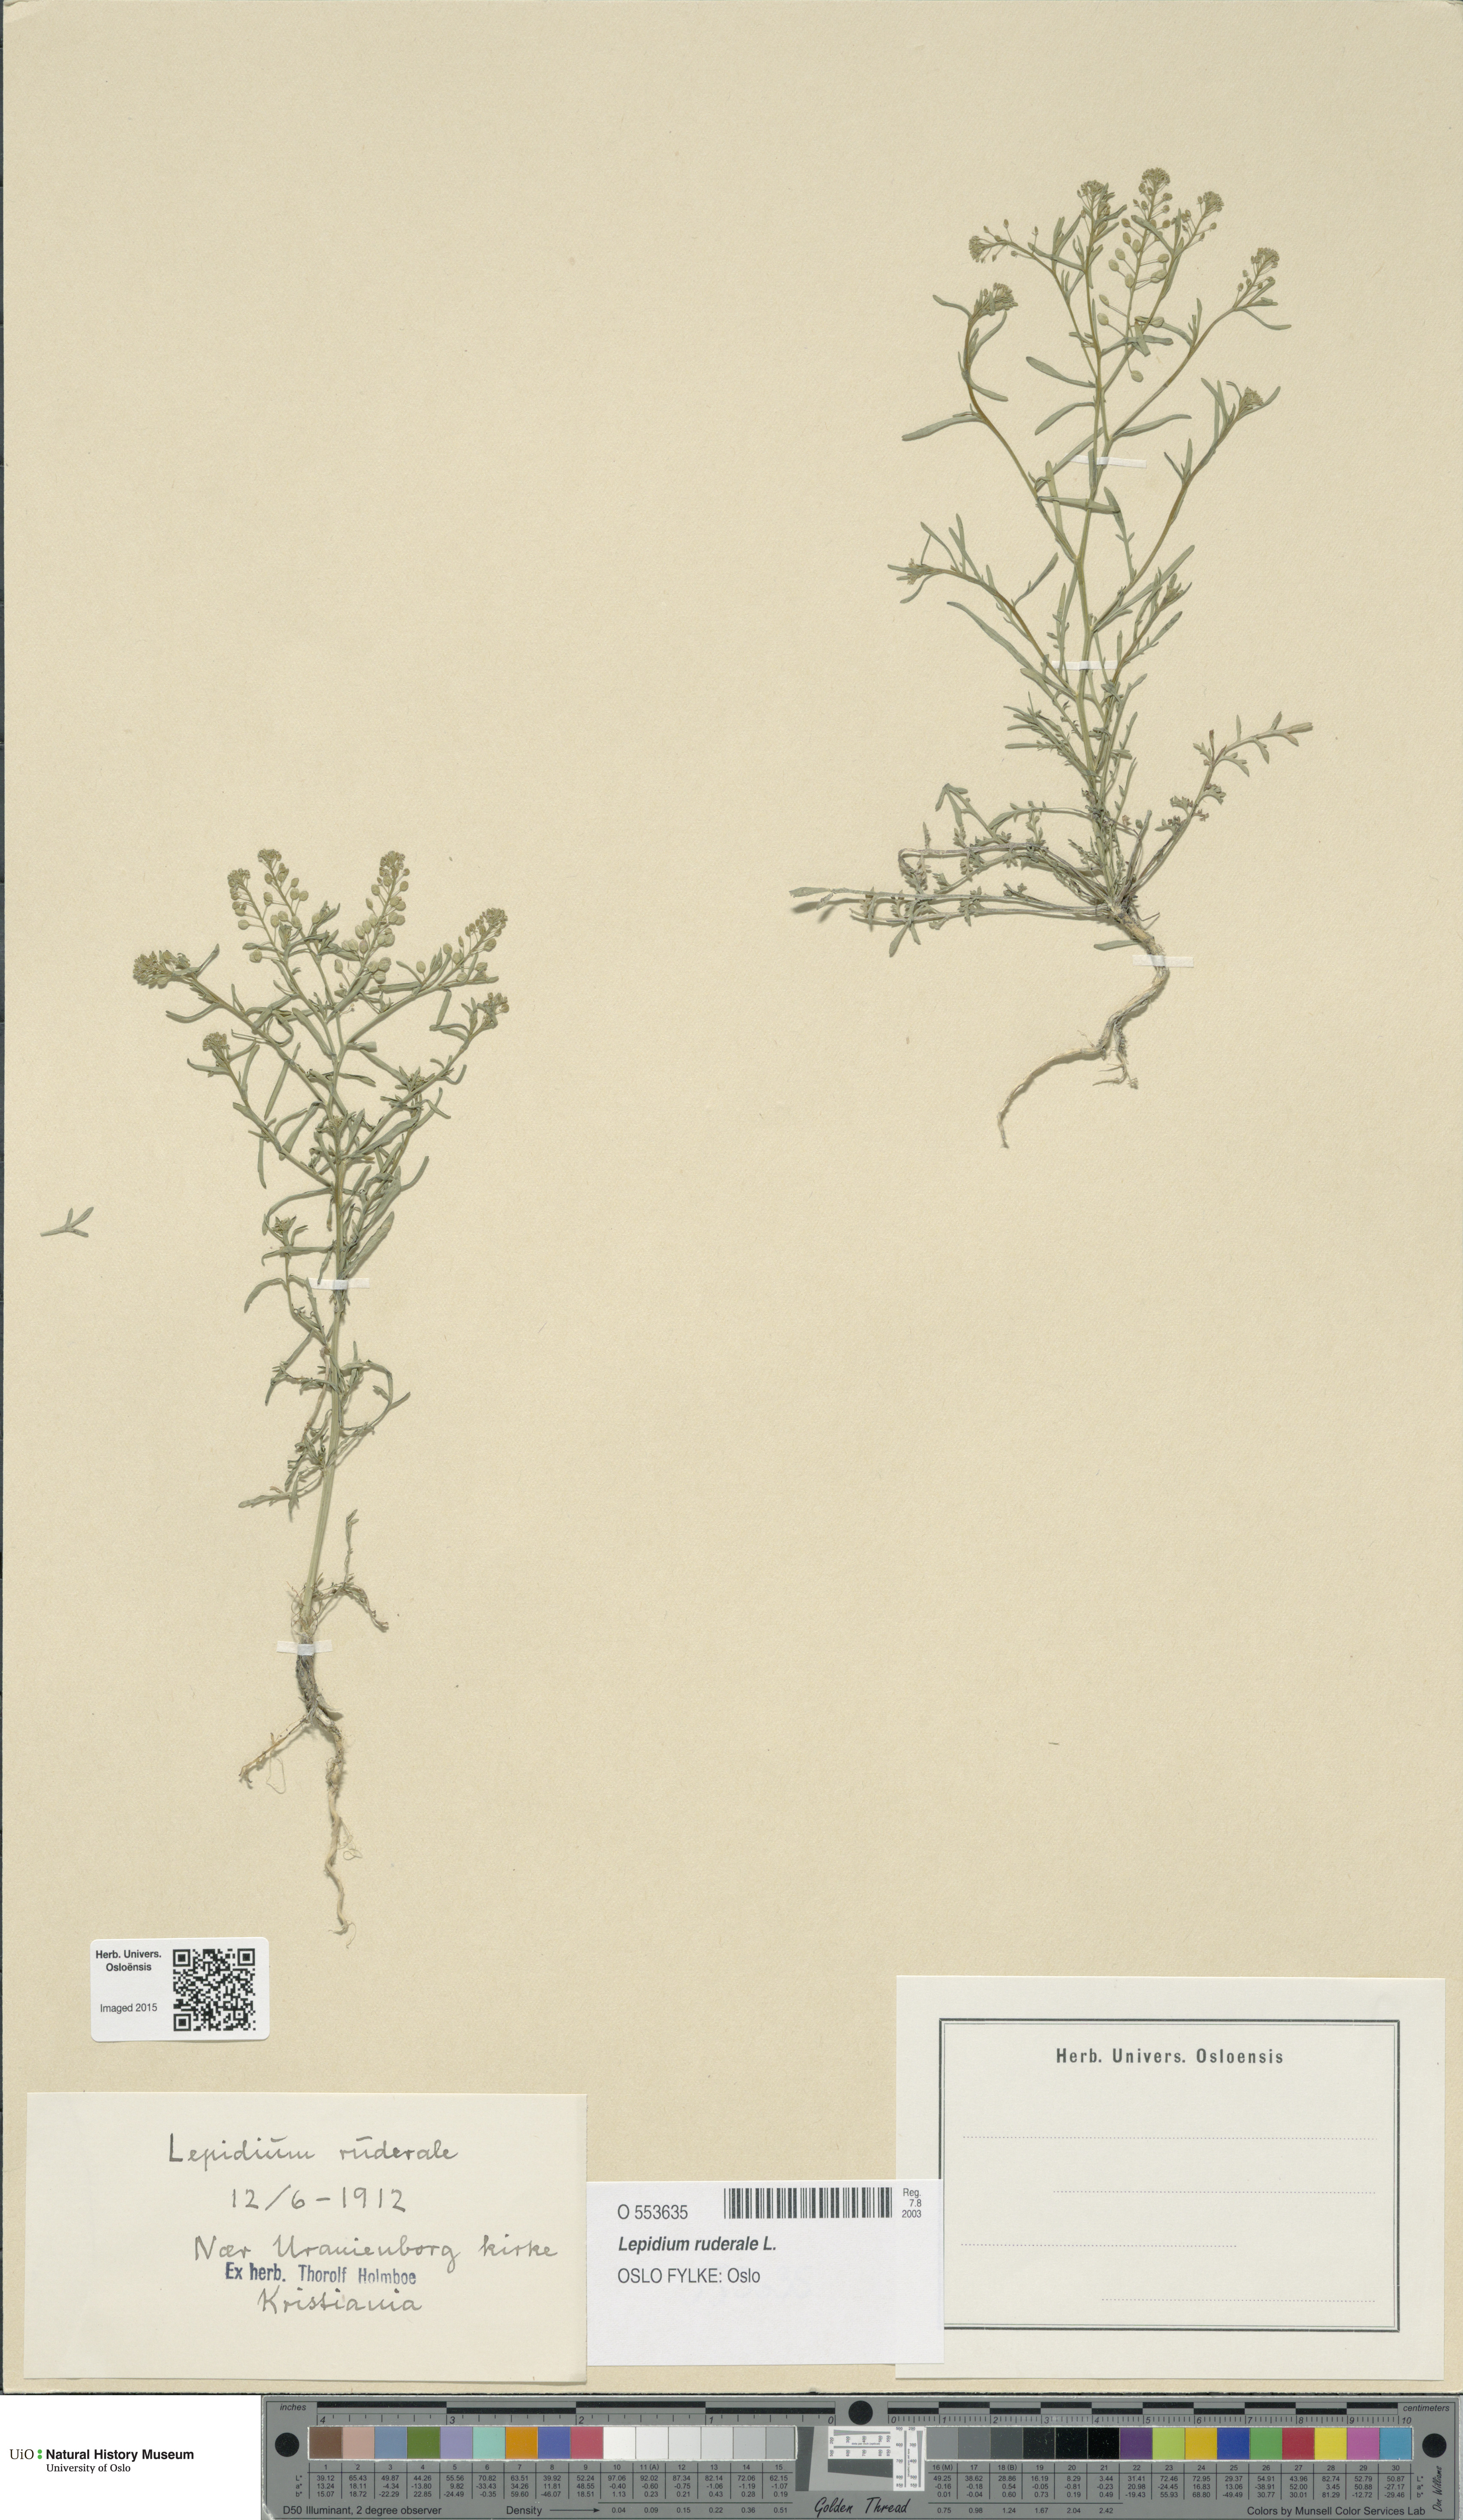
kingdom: Plantae
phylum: Tracheophyta
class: Magnoliopsida
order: Brassicales
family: Brassicaceae
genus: Lepidium
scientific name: Lepidium ruderale
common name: Narrow-leaved pepperwort
